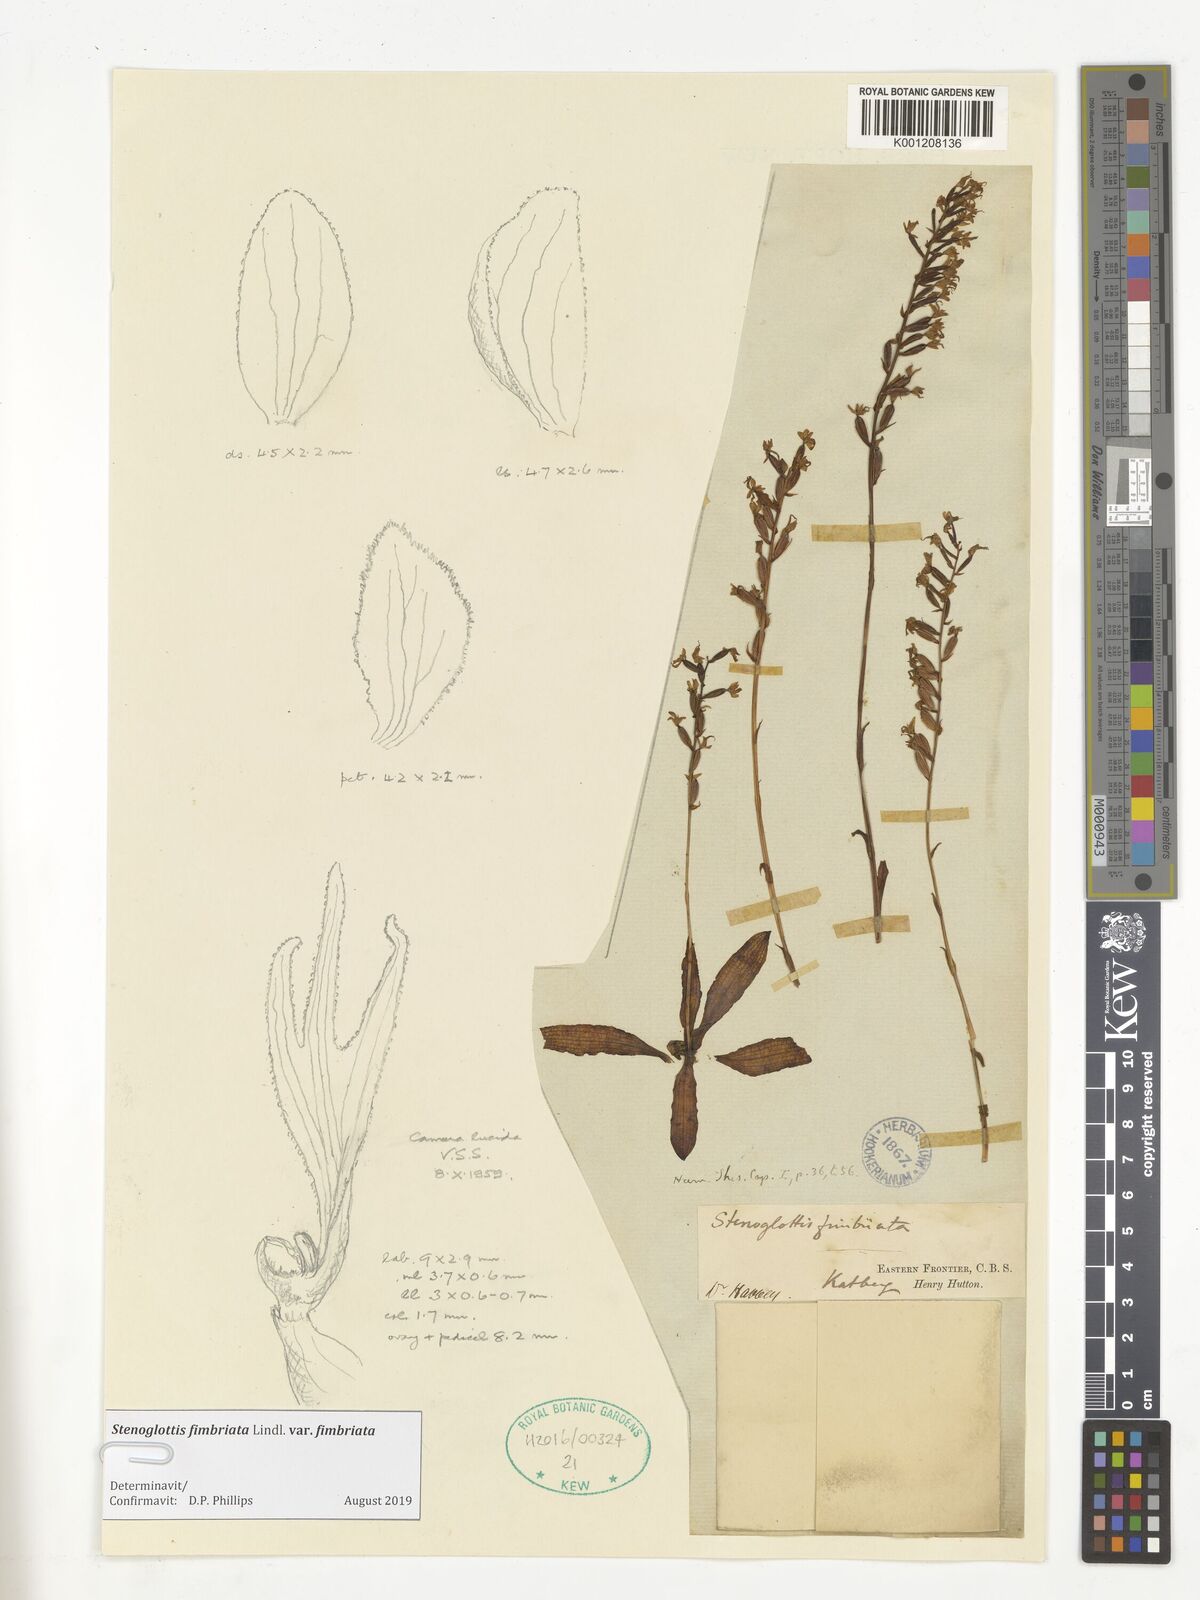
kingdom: Plantae
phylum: Tracheophyta
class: Liliopsida
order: Asparagales
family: Orchidaceae
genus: Stenoglottis
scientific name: Stenoglottis fimbriata
